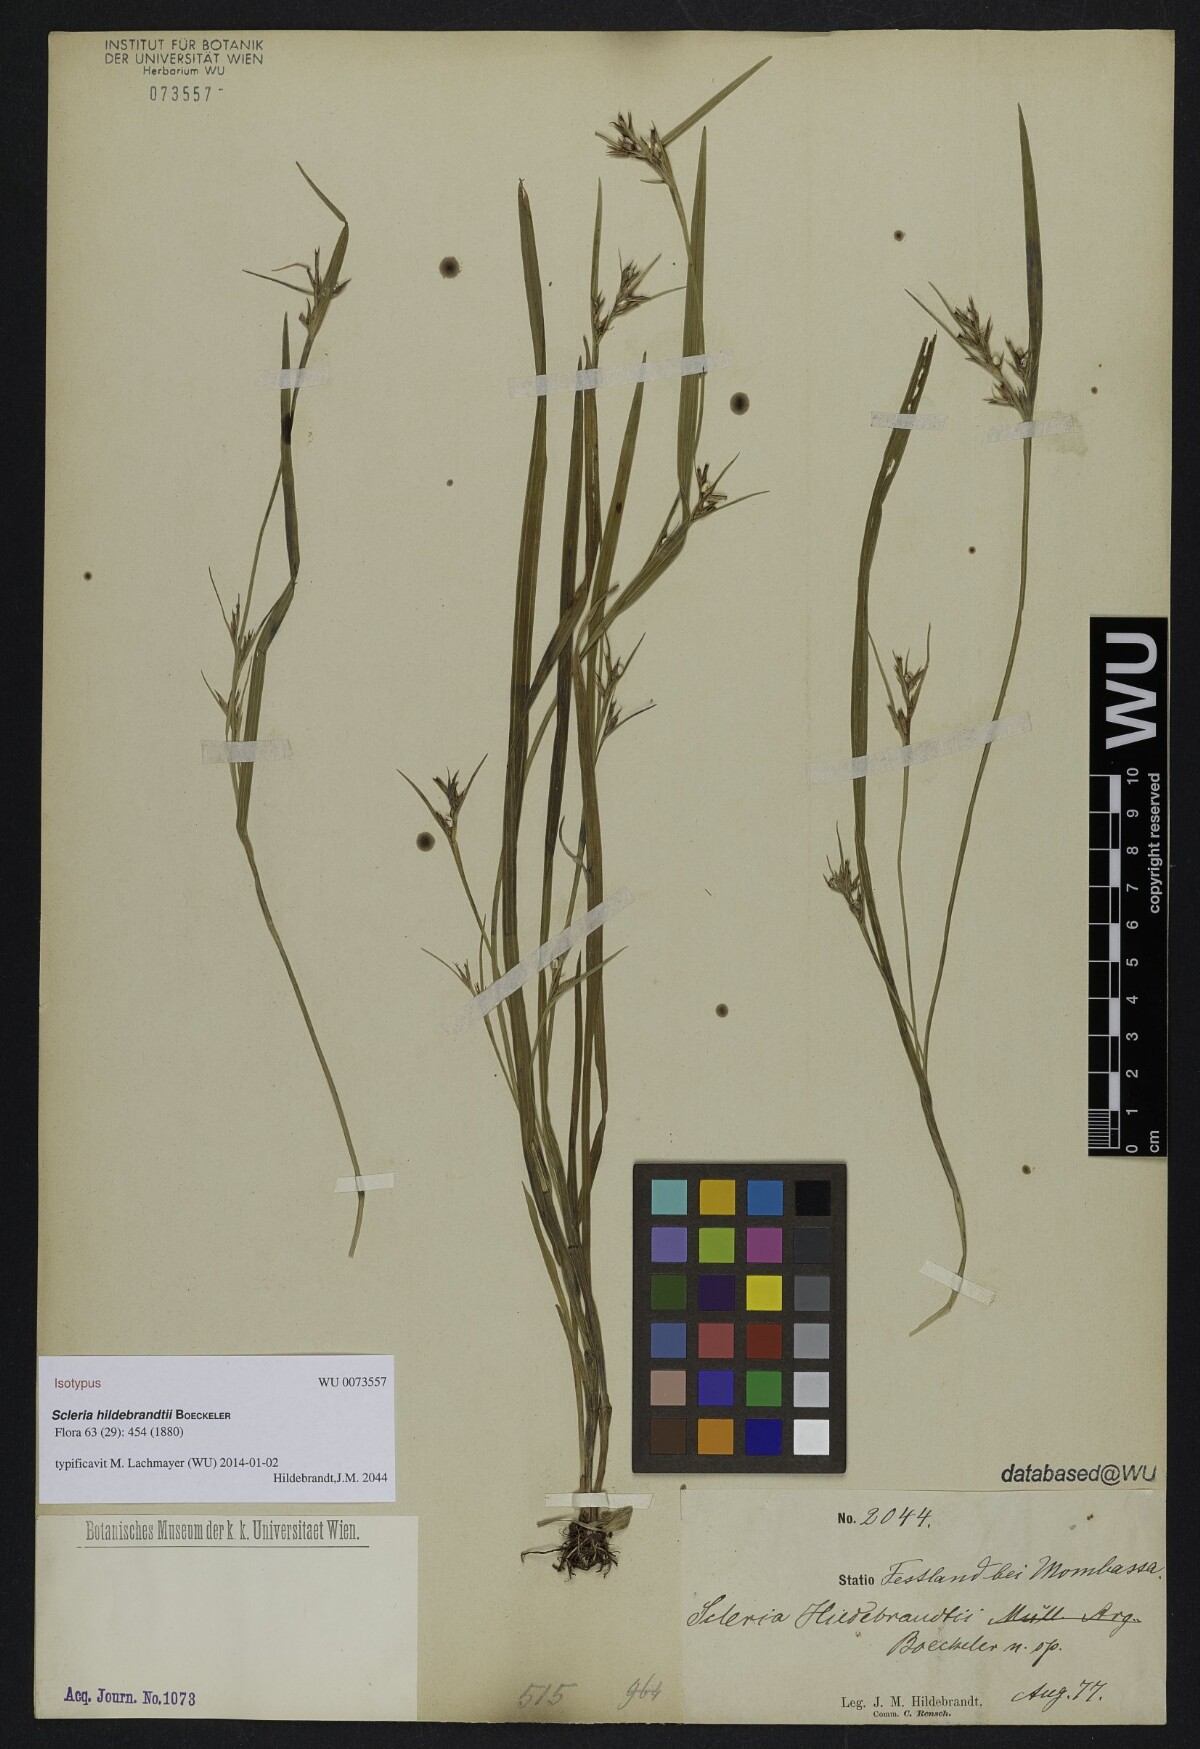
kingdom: Plantae
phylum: Tracheophyta
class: Liliopsida
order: Poales
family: Cyperaceae
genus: Scleria
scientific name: Scleria hildebrandtii
